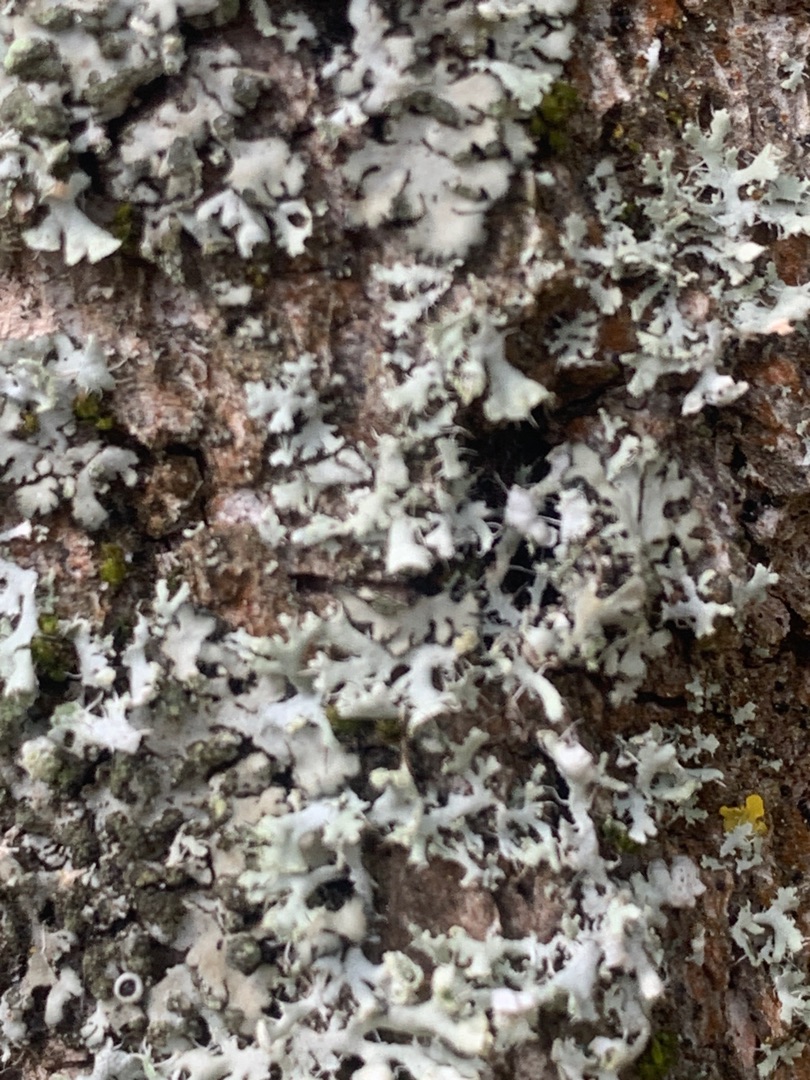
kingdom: Fungi
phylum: Ascomycota
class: Lecanoromycetes
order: Caliciales
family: Physciaceae
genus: Physcia
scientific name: Physcia adscendens
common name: Hætte-rosetlav
